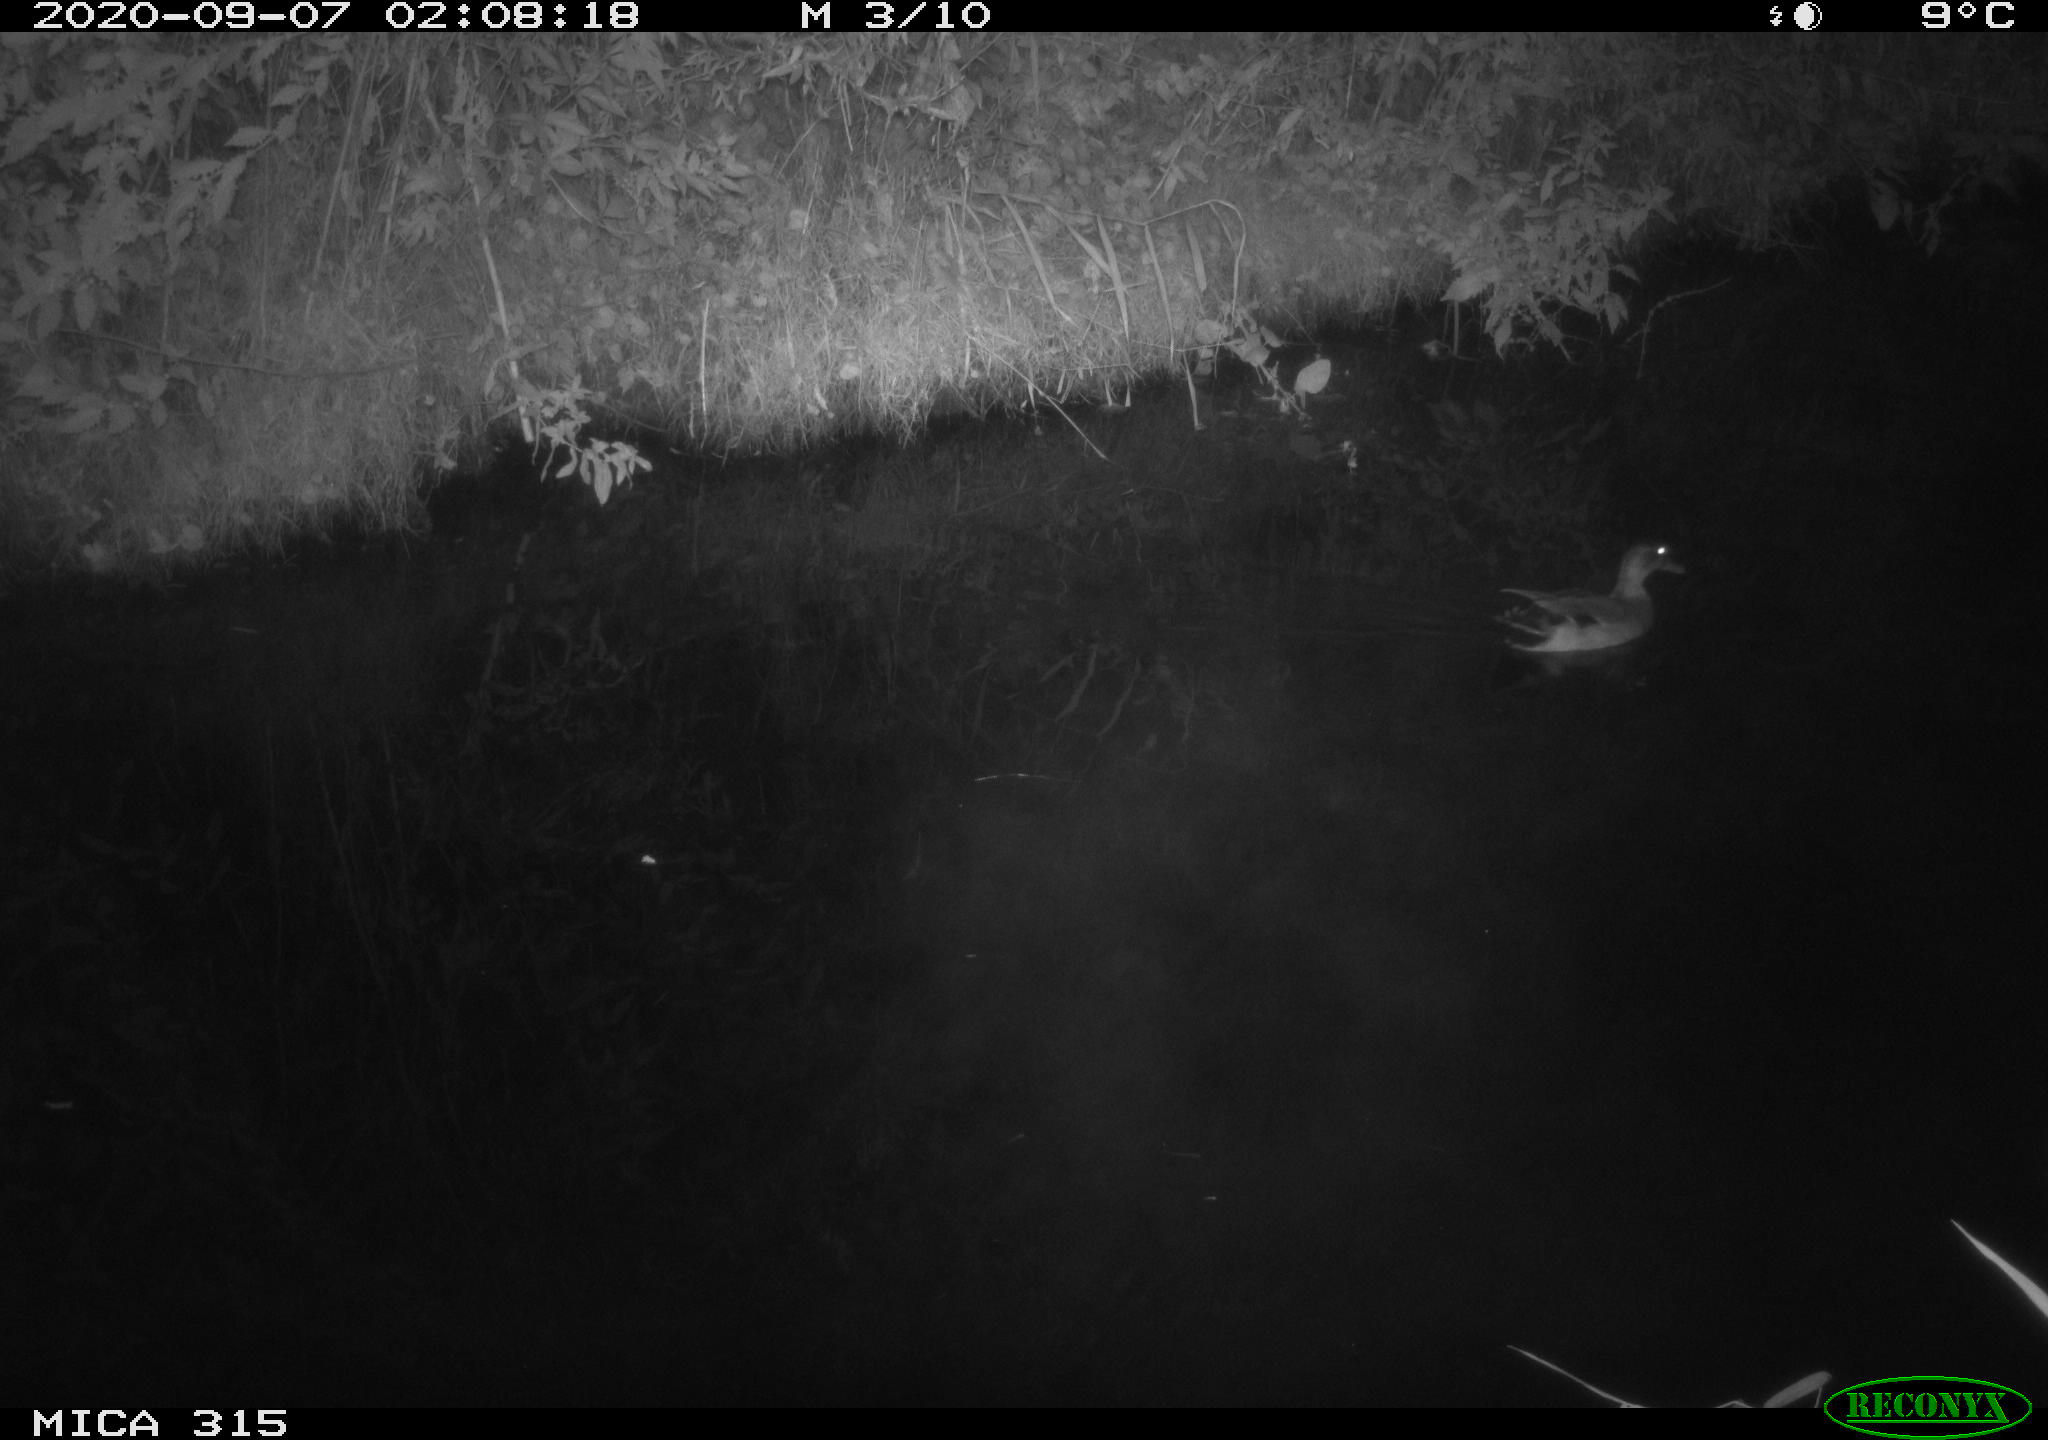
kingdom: Animalia
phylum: Chordata
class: Aves
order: Anseriformes
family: Anatidae
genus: Anas
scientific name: Anas platyrhynchos
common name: Mallard
